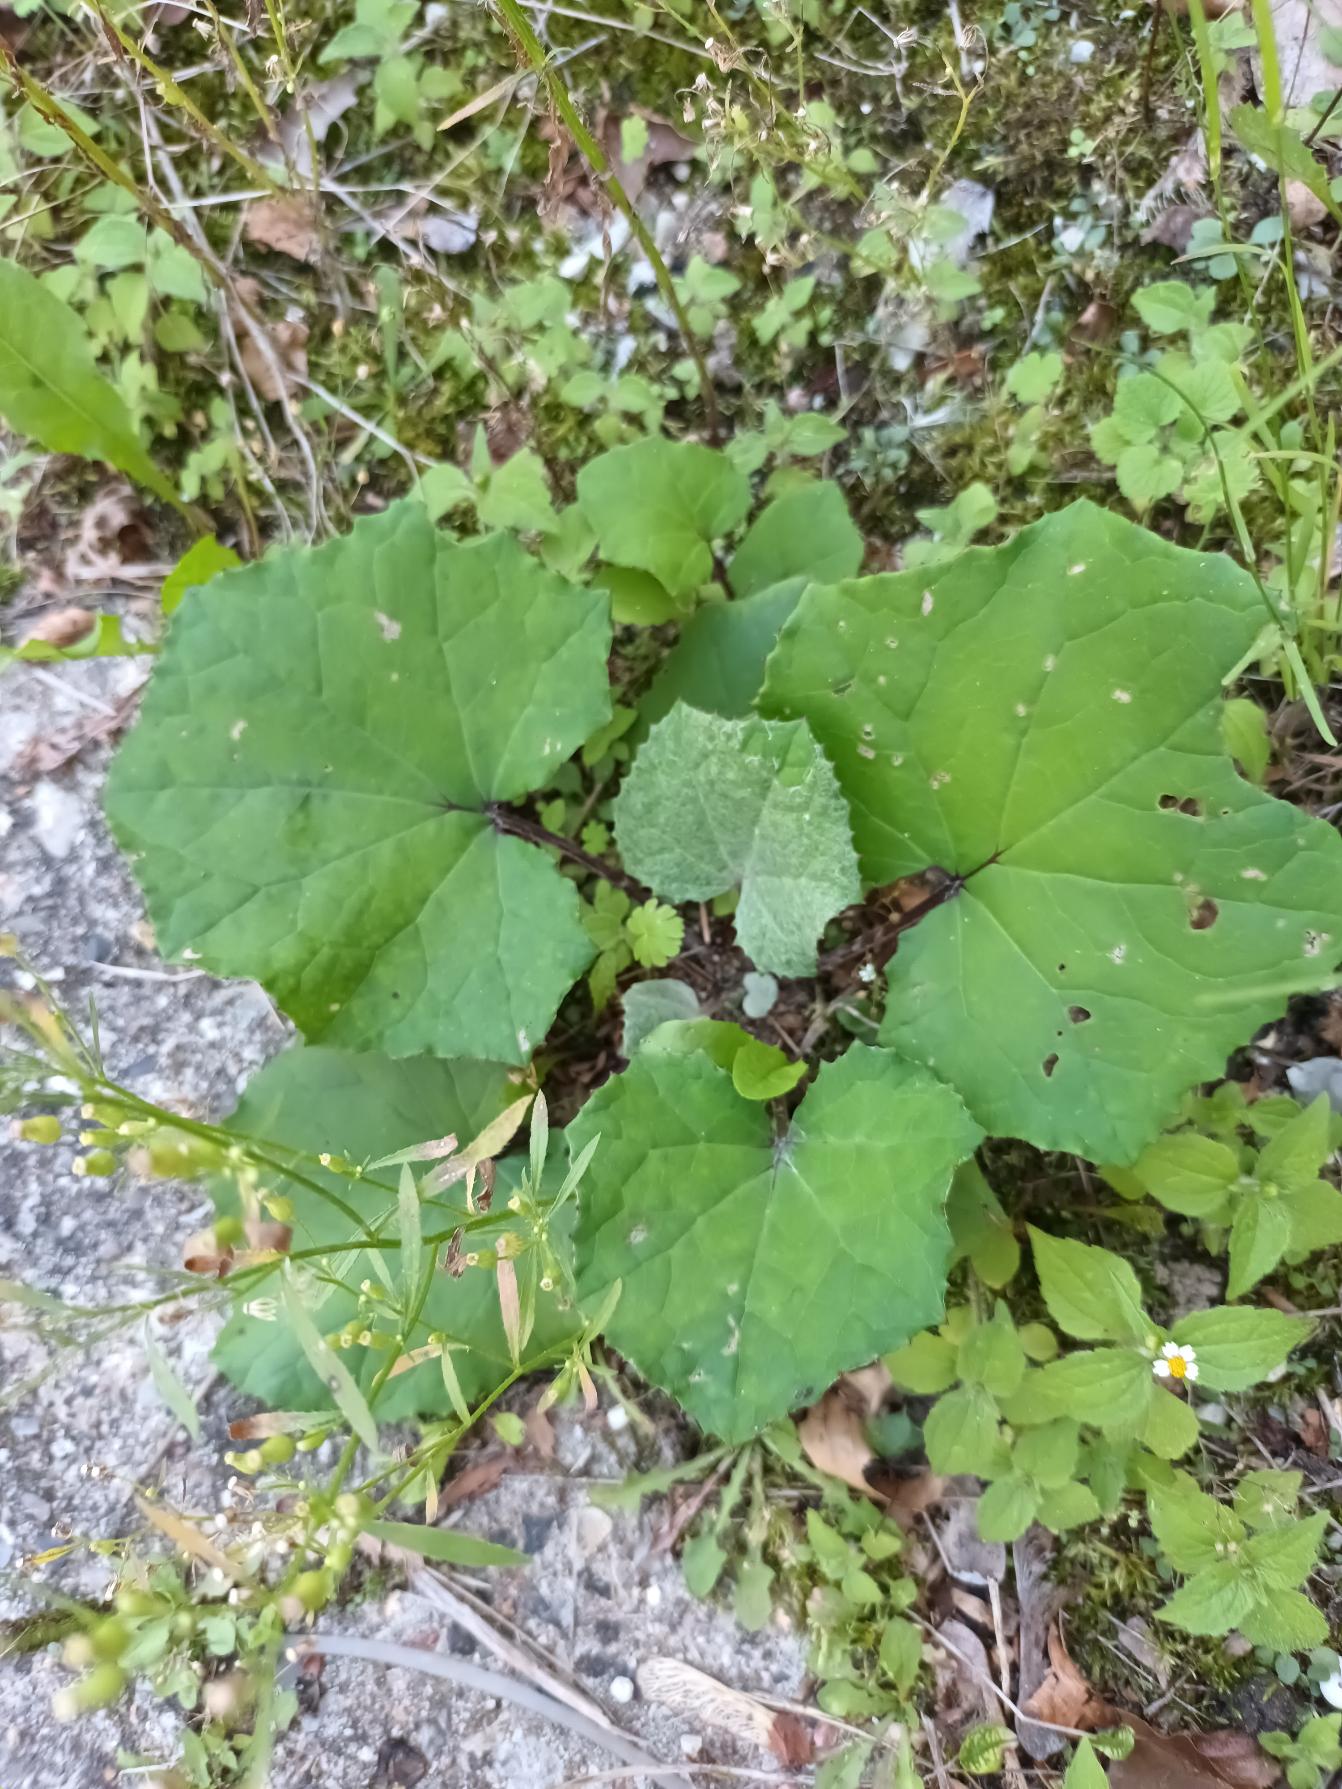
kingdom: Plantae
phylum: Tracheophyta
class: Magnoliopsida
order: Asterales
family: Asteraceae
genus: Tussilago
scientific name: Tussilago farfara
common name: Følfod
